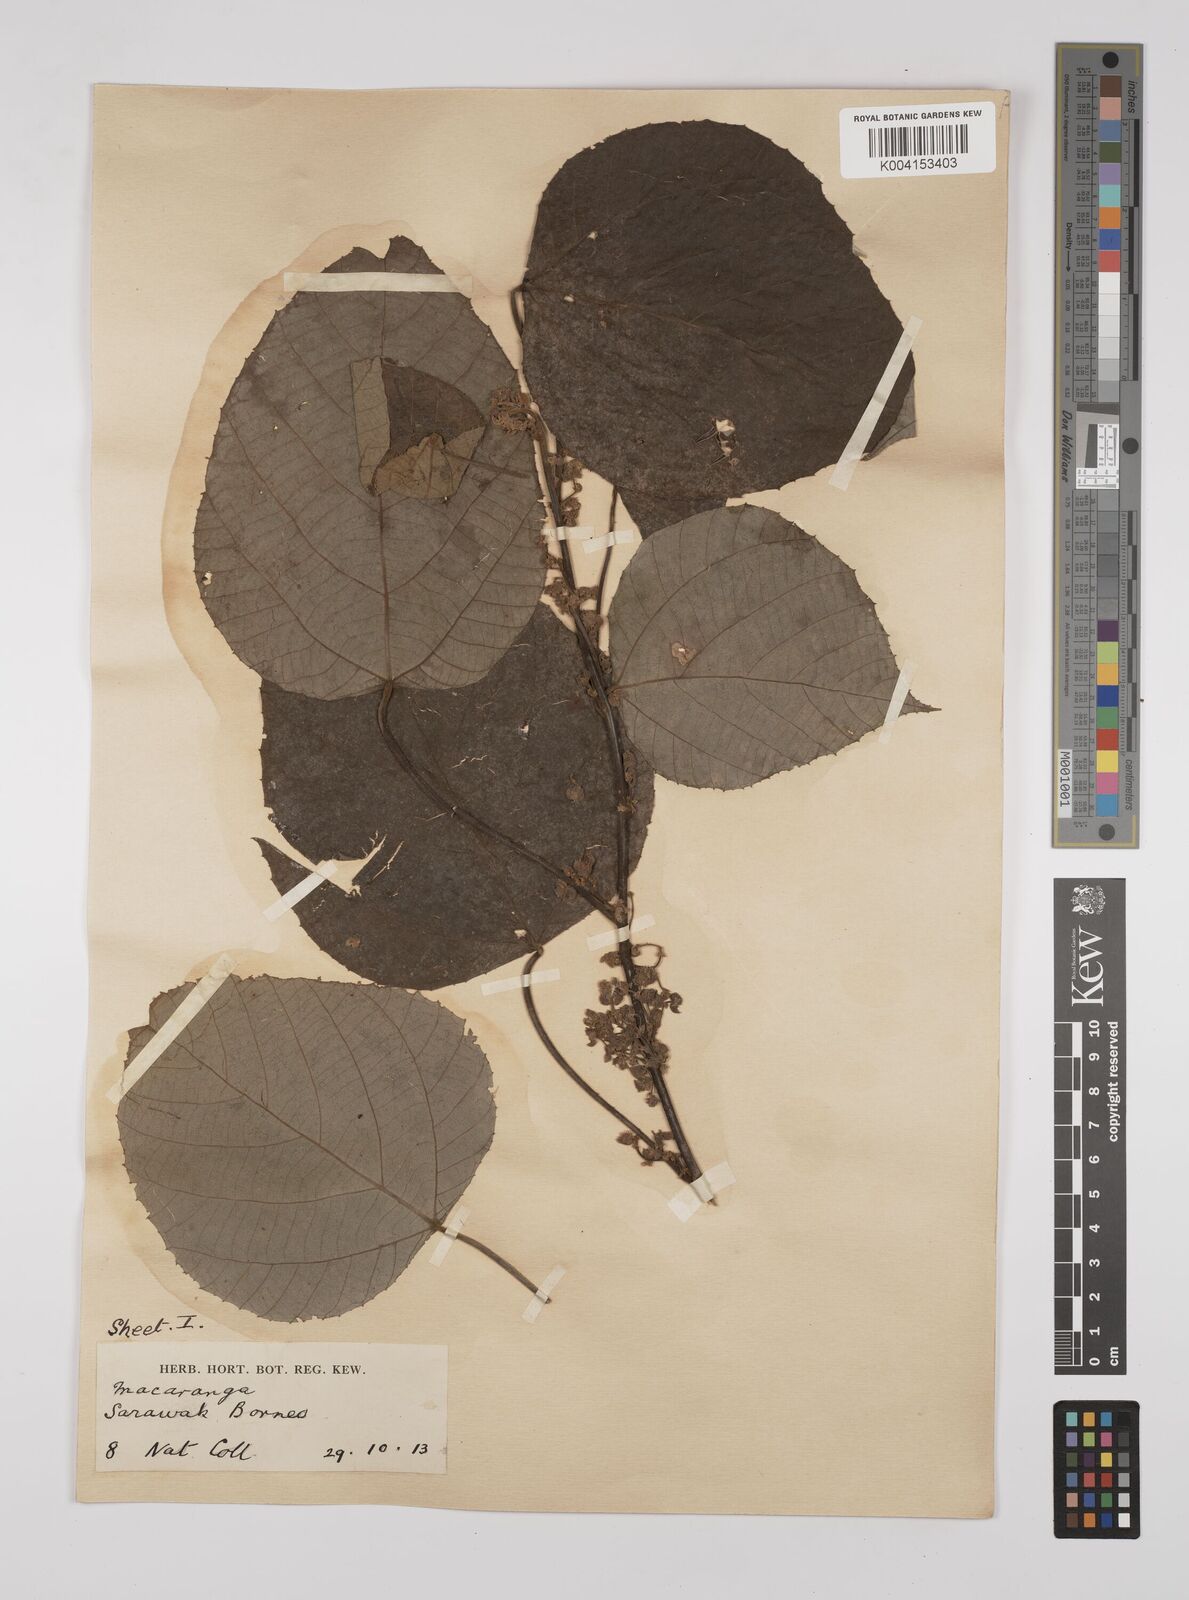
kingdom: Plantae
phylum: Tracheophyta
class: Magnoliopsida
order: Malpighiales
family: Euphorbiaceae
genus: Macaranga
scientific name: Macaranga trichocarpa
